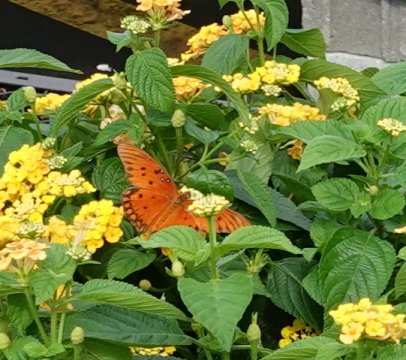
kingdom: Animalia
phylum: Arthropoda
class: Insecta
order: Lepidoptera
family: Nymphalidae
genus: Dione
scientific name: Dione vanillae
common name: Gulf Fritillary
